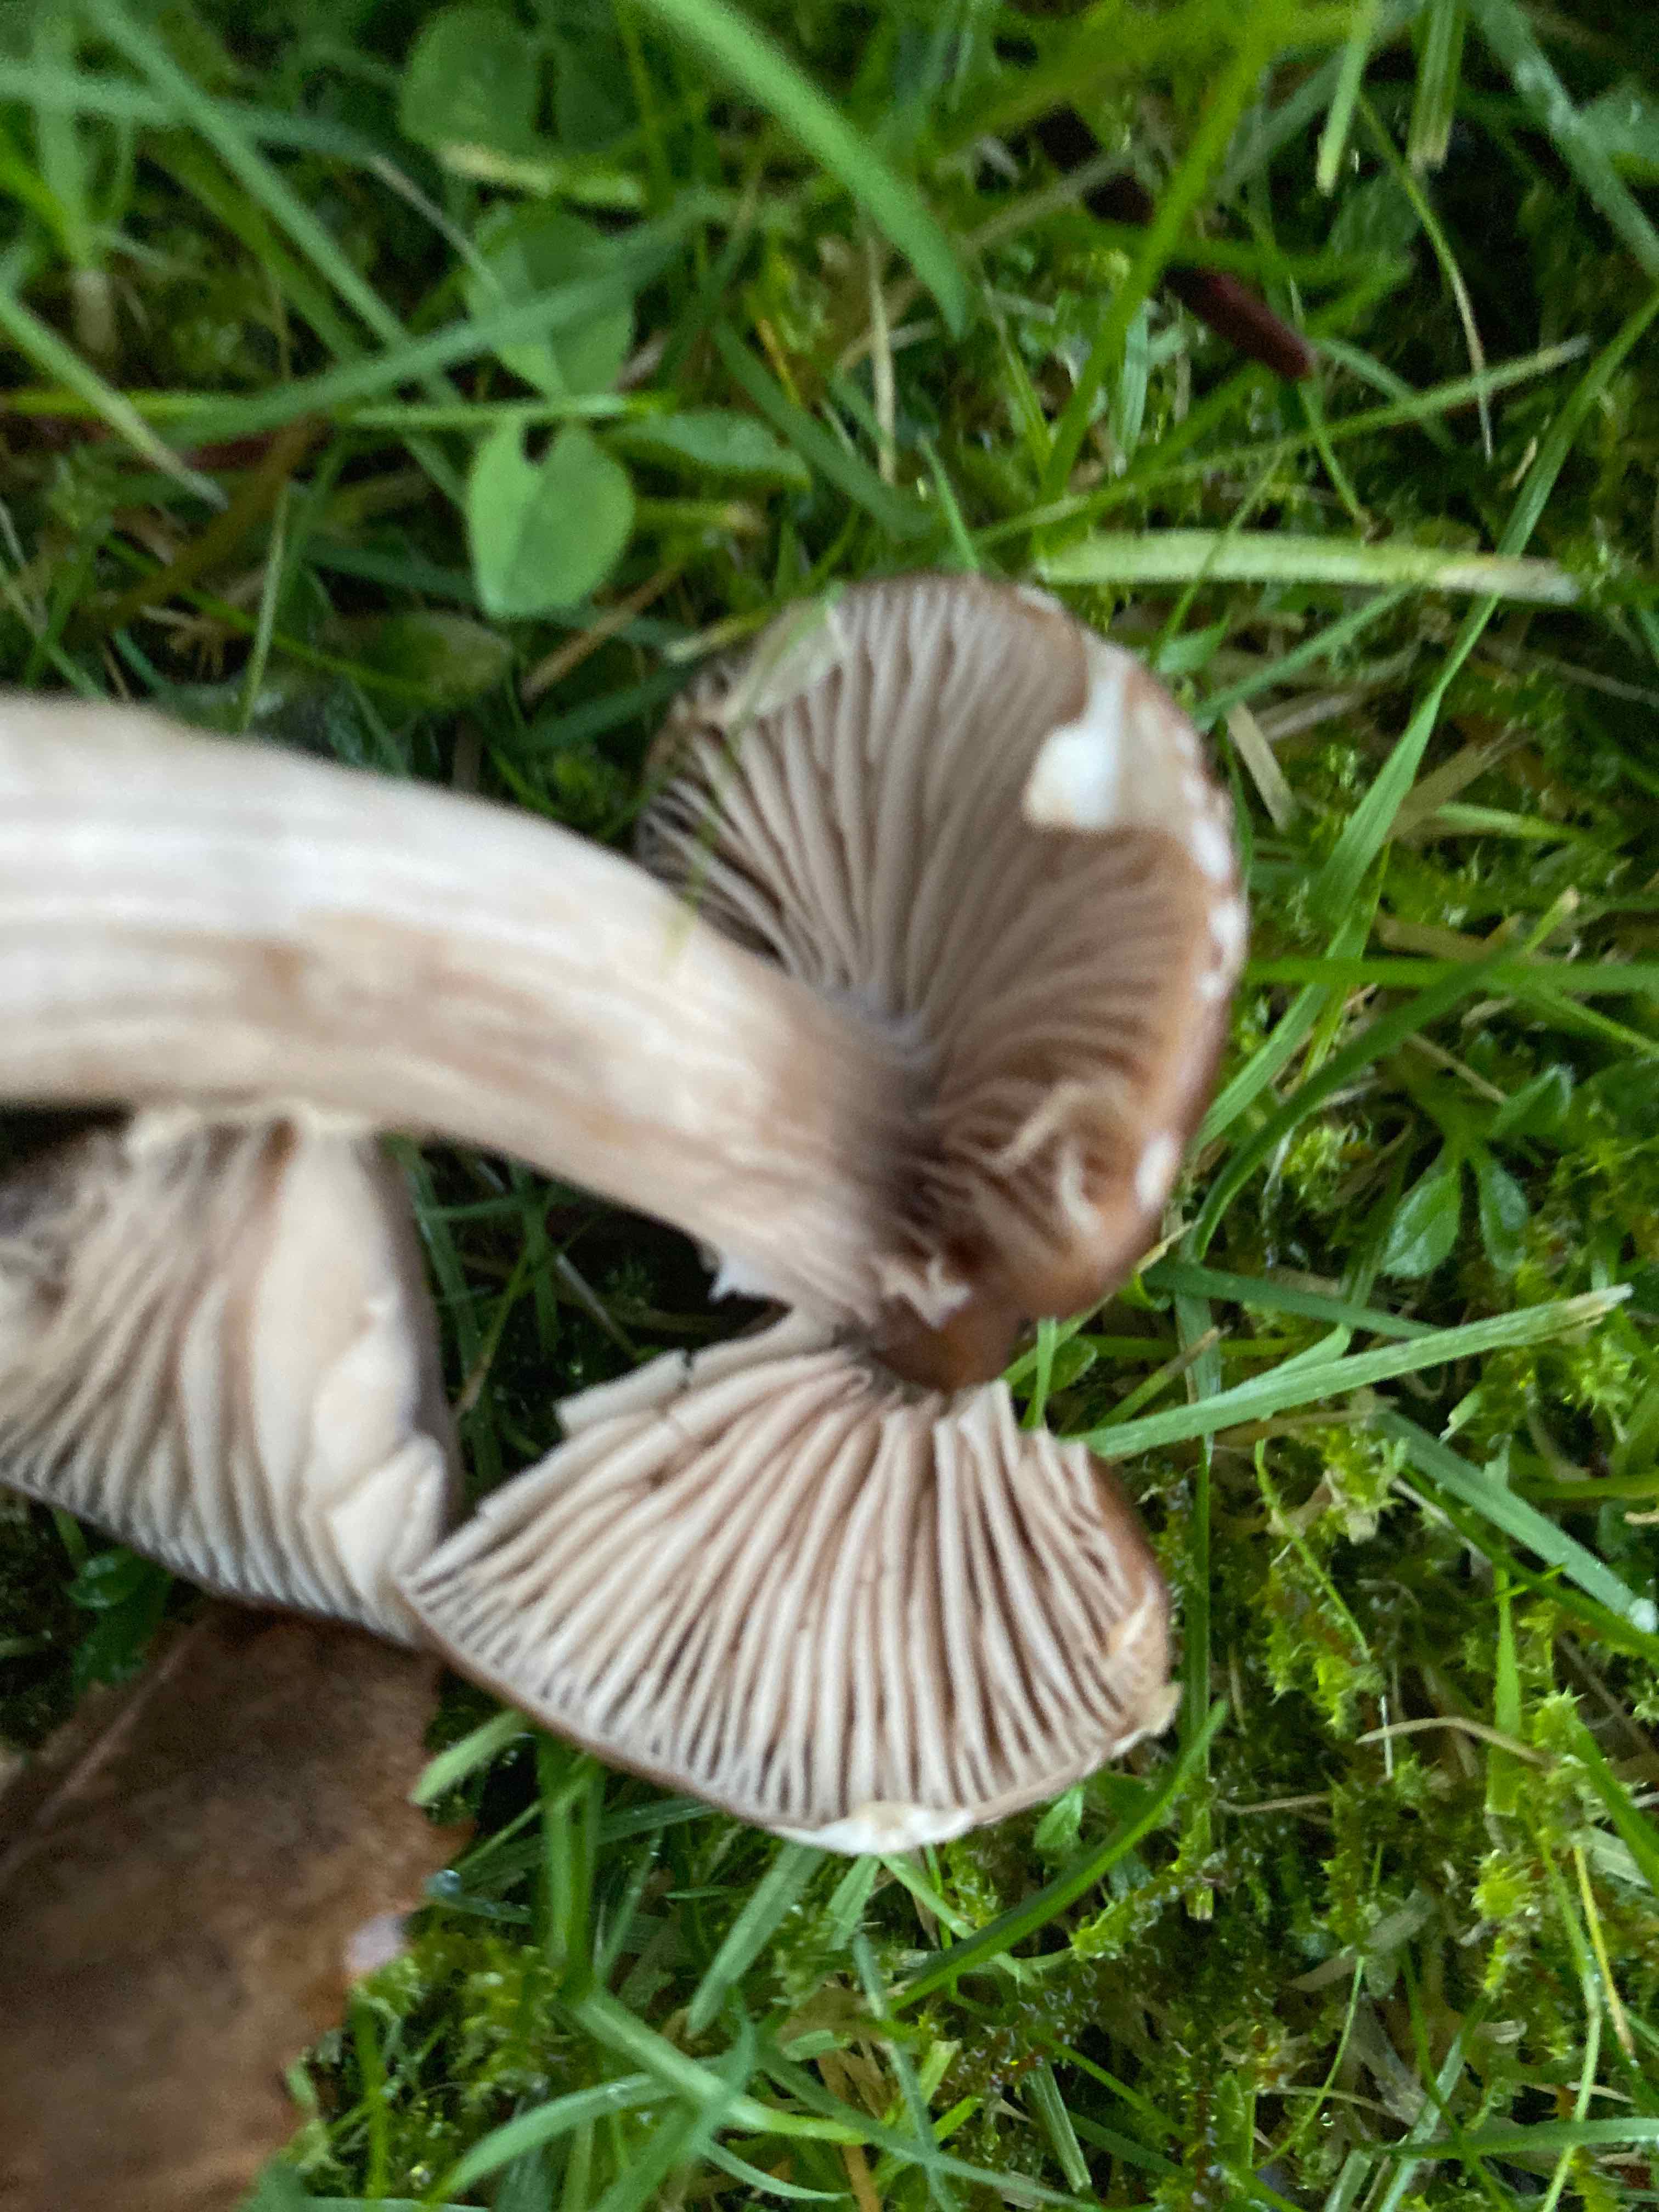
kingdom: Fungi
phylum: Basidiomycota
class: Agaricomycetes
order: Agaricales
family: Tubariaceae
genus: Cyclocybe
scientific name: Cyclocybe erebia
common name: mørk agerhat
